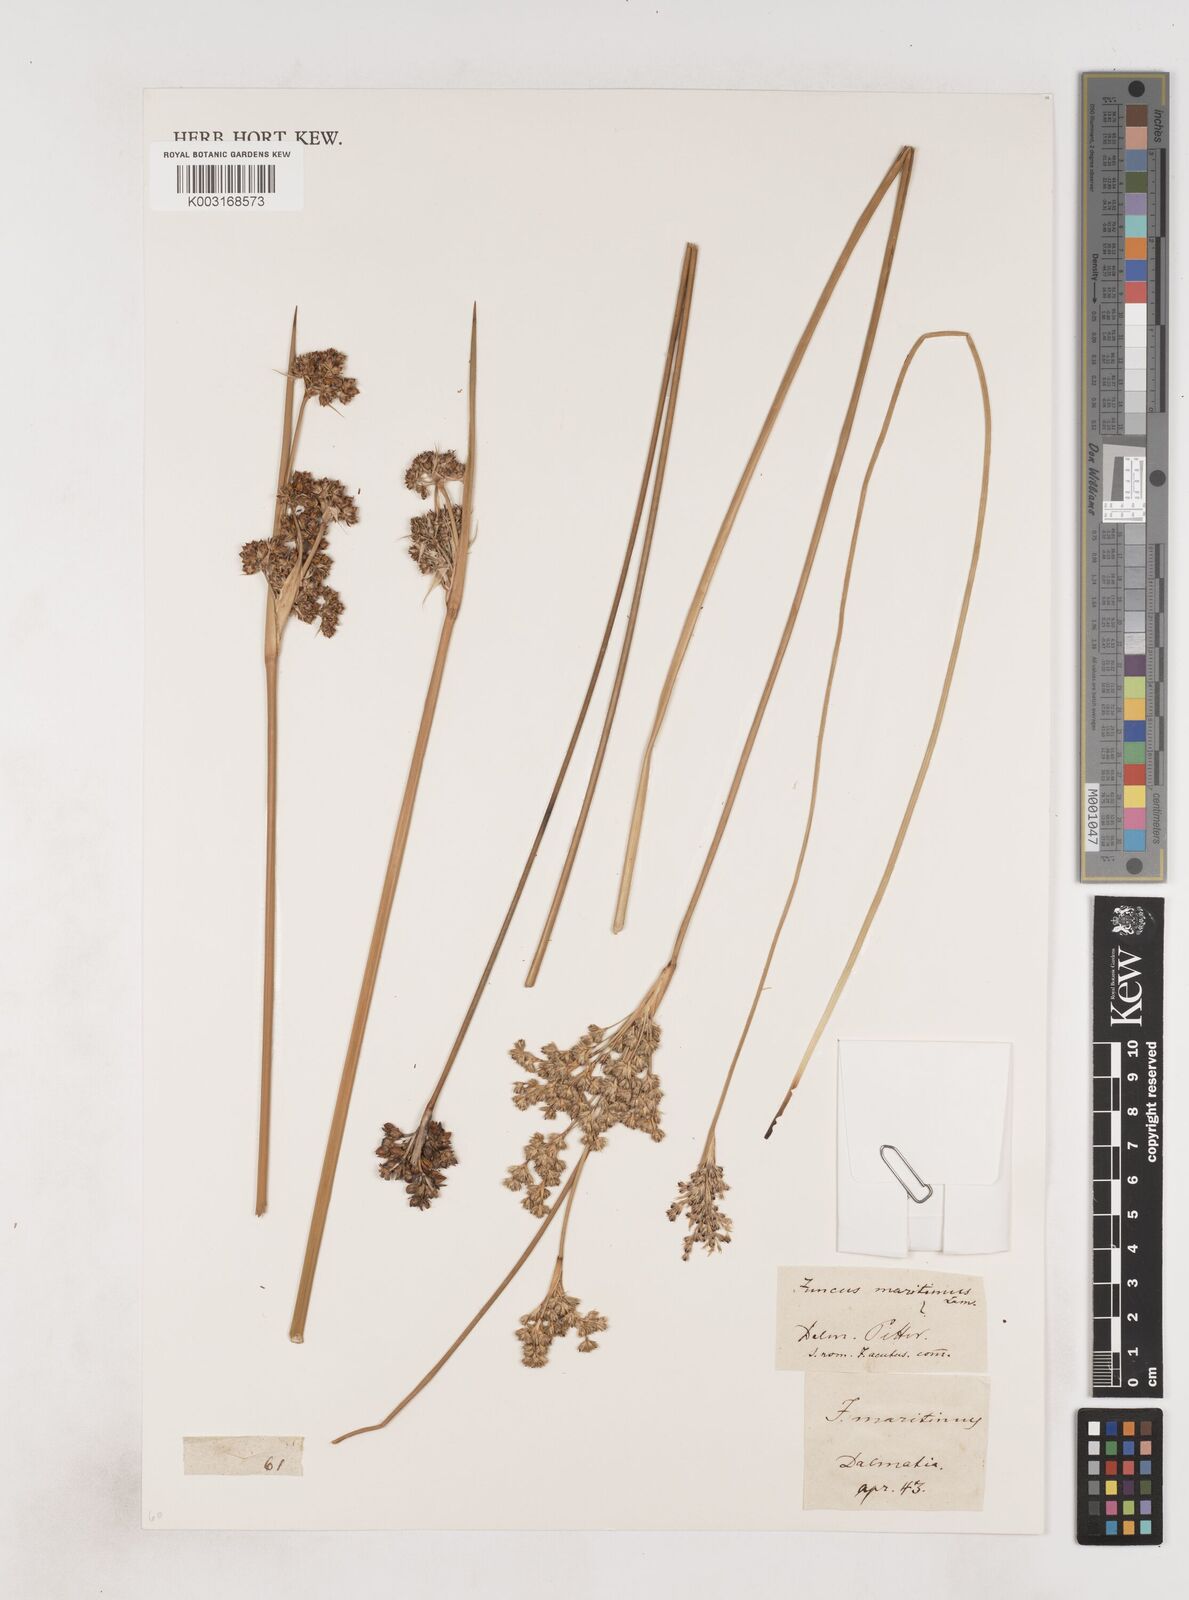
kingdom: Plantae
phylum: Tracheophyta
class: Liliopsida
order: Poales
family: Juncaceae
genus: Juncus
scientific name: Juncus maritimus
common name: Sea rush
